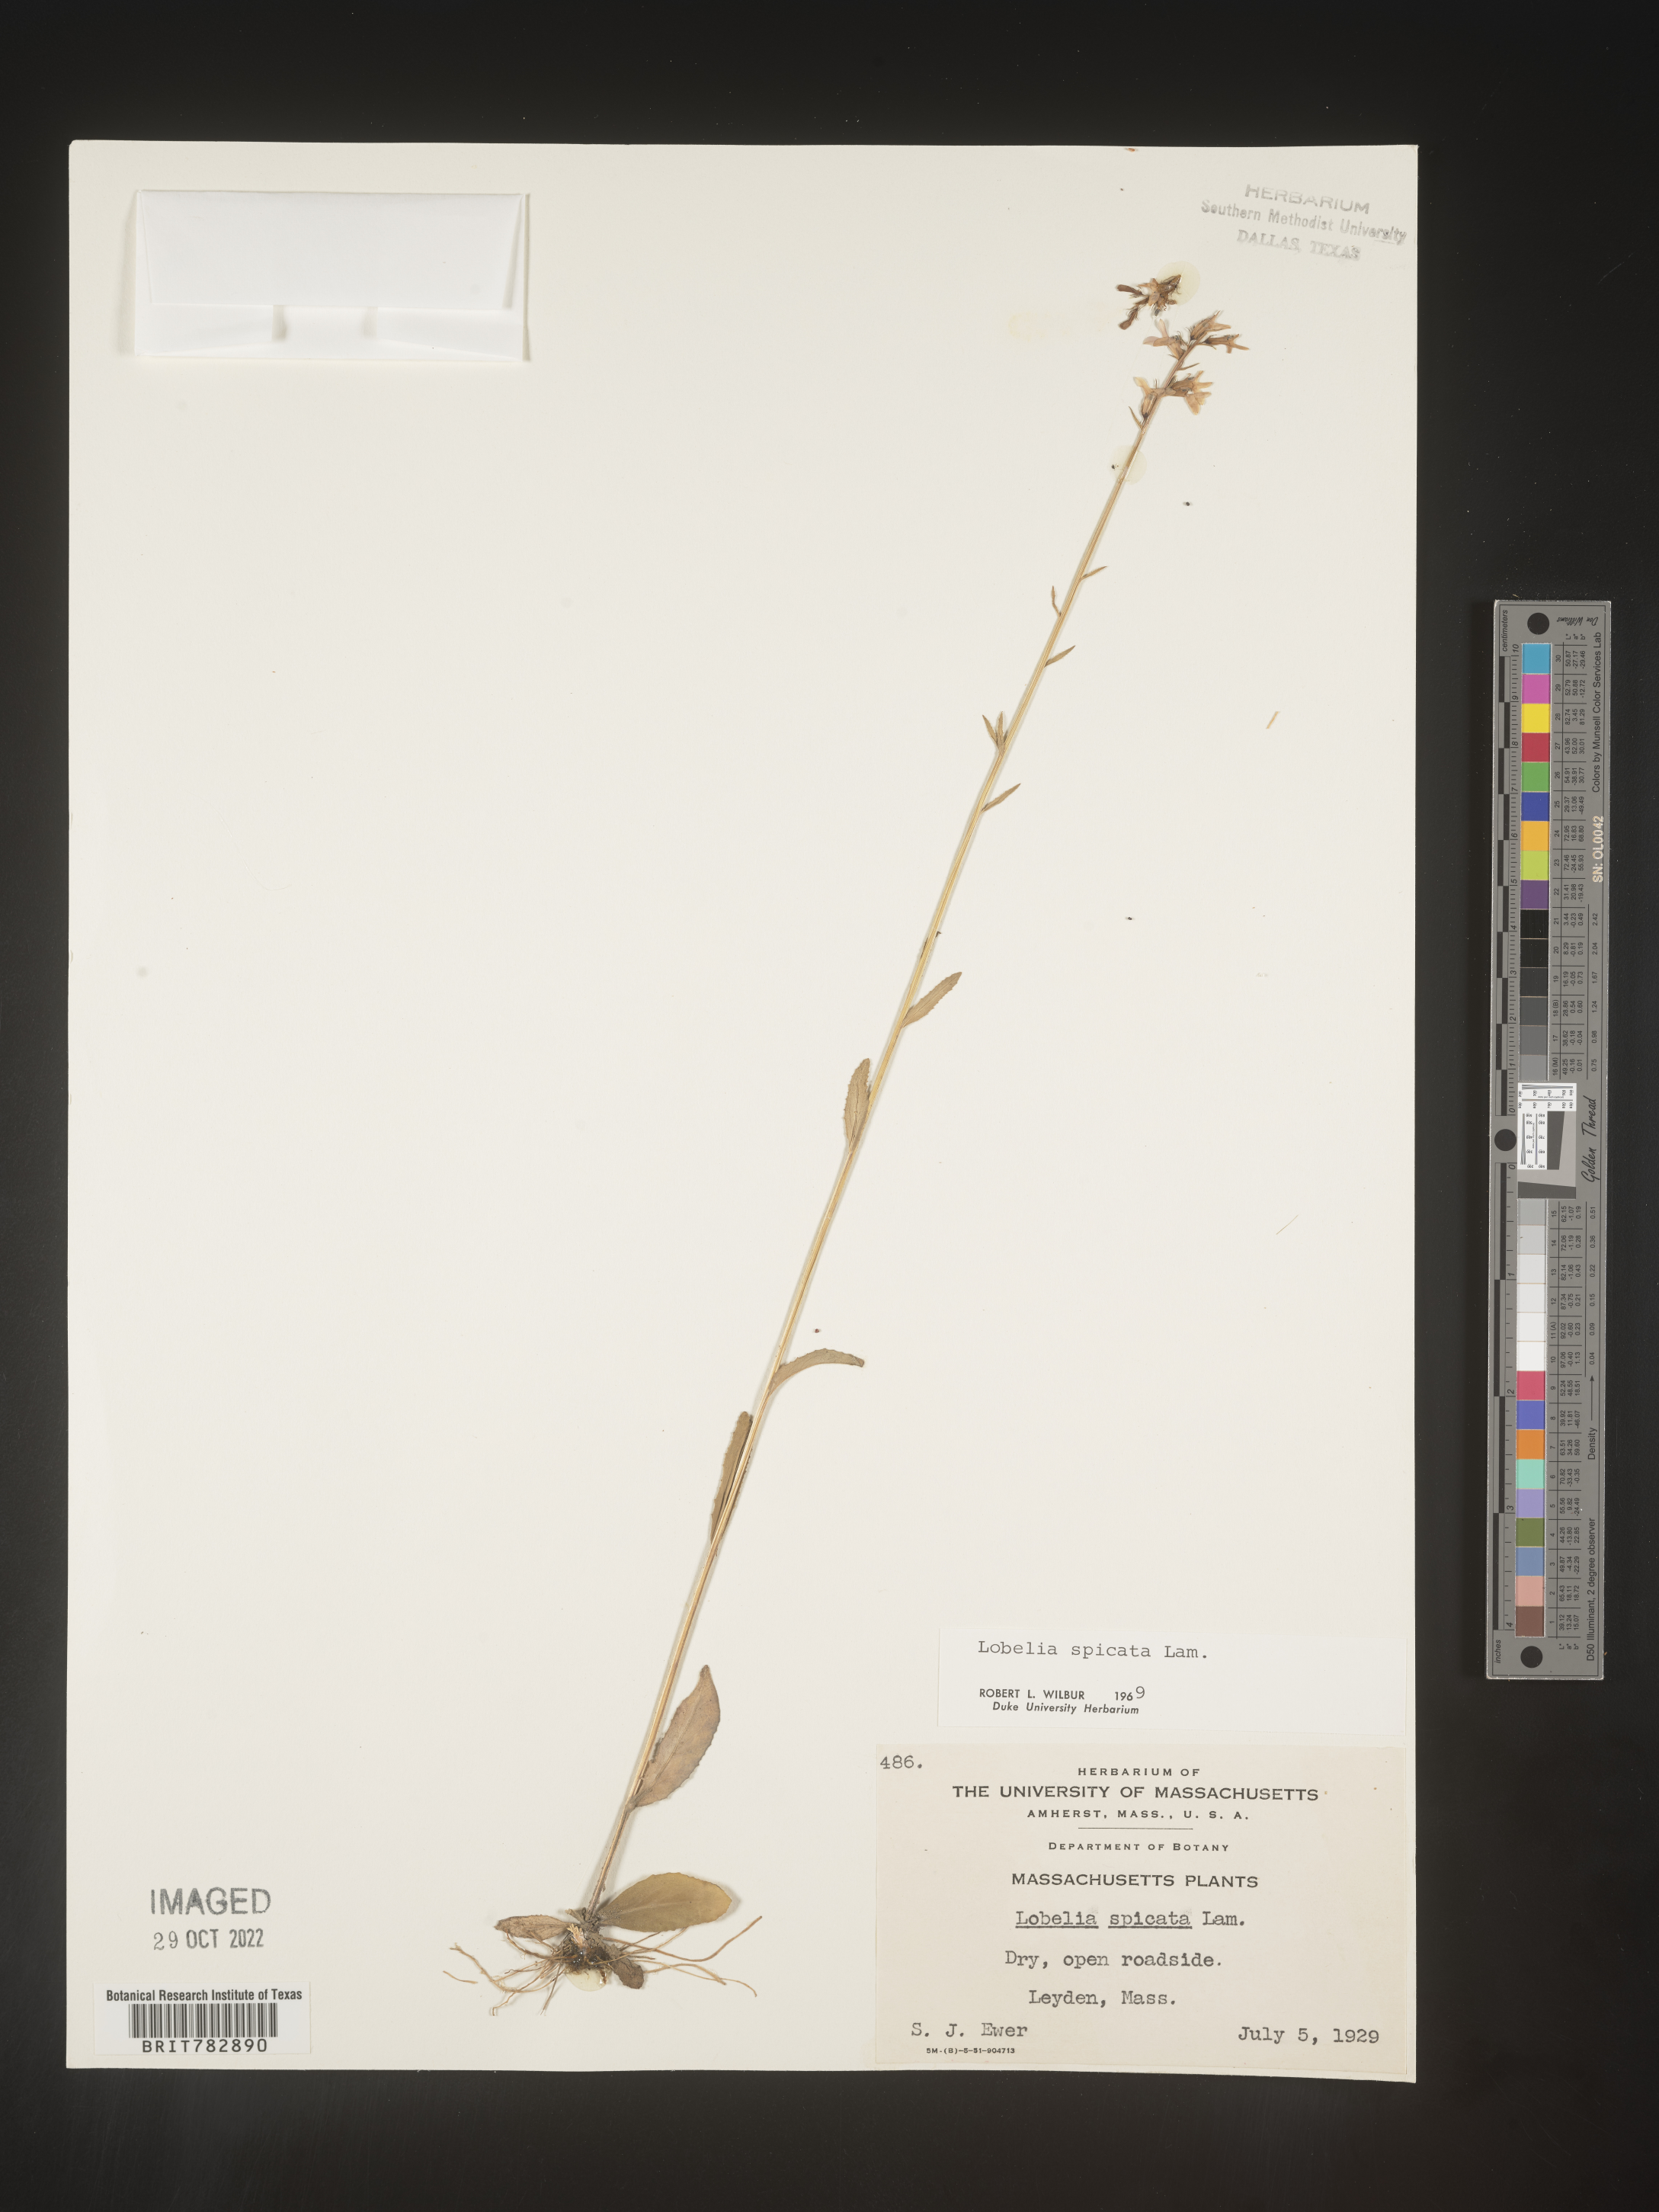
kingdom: Plantae
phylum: Tracheophyta
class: Magnoliopsida
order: Asterales
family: Campanulaceae
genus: Lobelia
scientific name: Lobelia spicata
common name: Pale-spike lobelia
